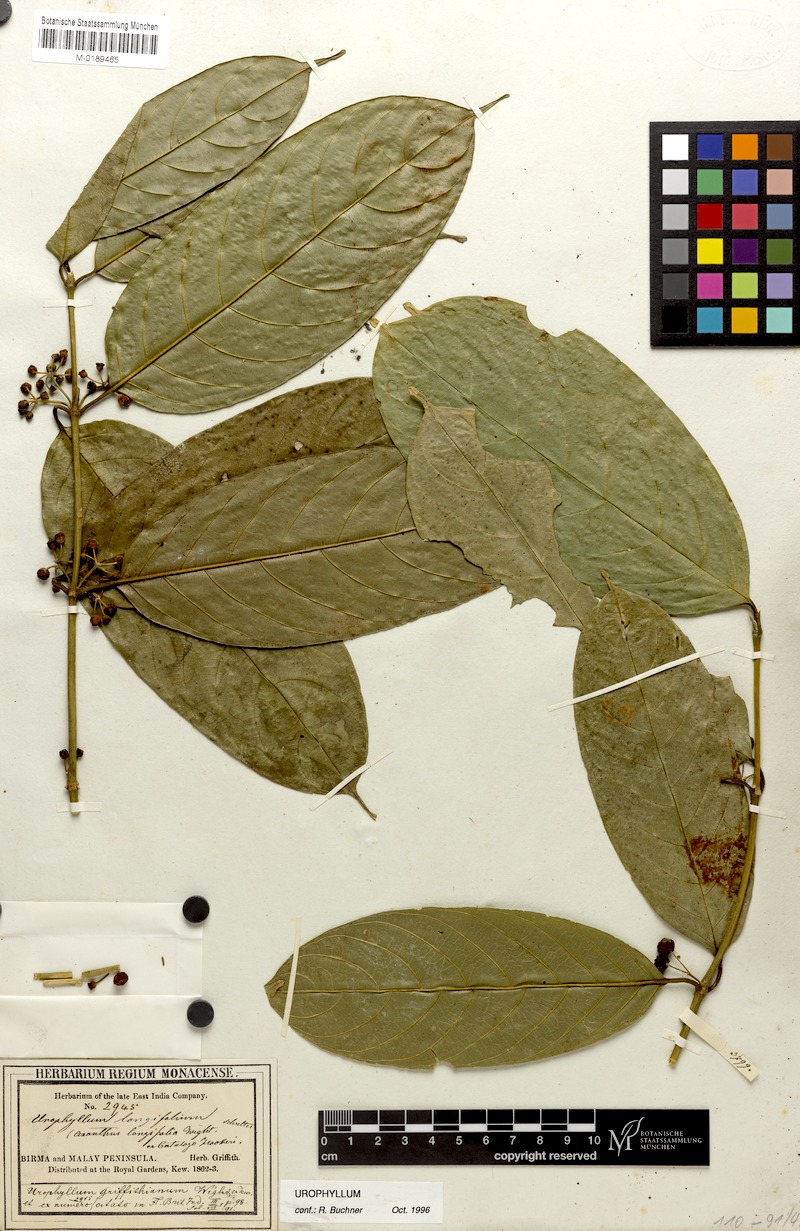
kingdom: Plantae
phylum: Tracheophyta
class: Magnoliopsida
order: Gentianales
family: Rubiaceae
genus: Urophyllum
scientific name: Urophyllum griffithianum
